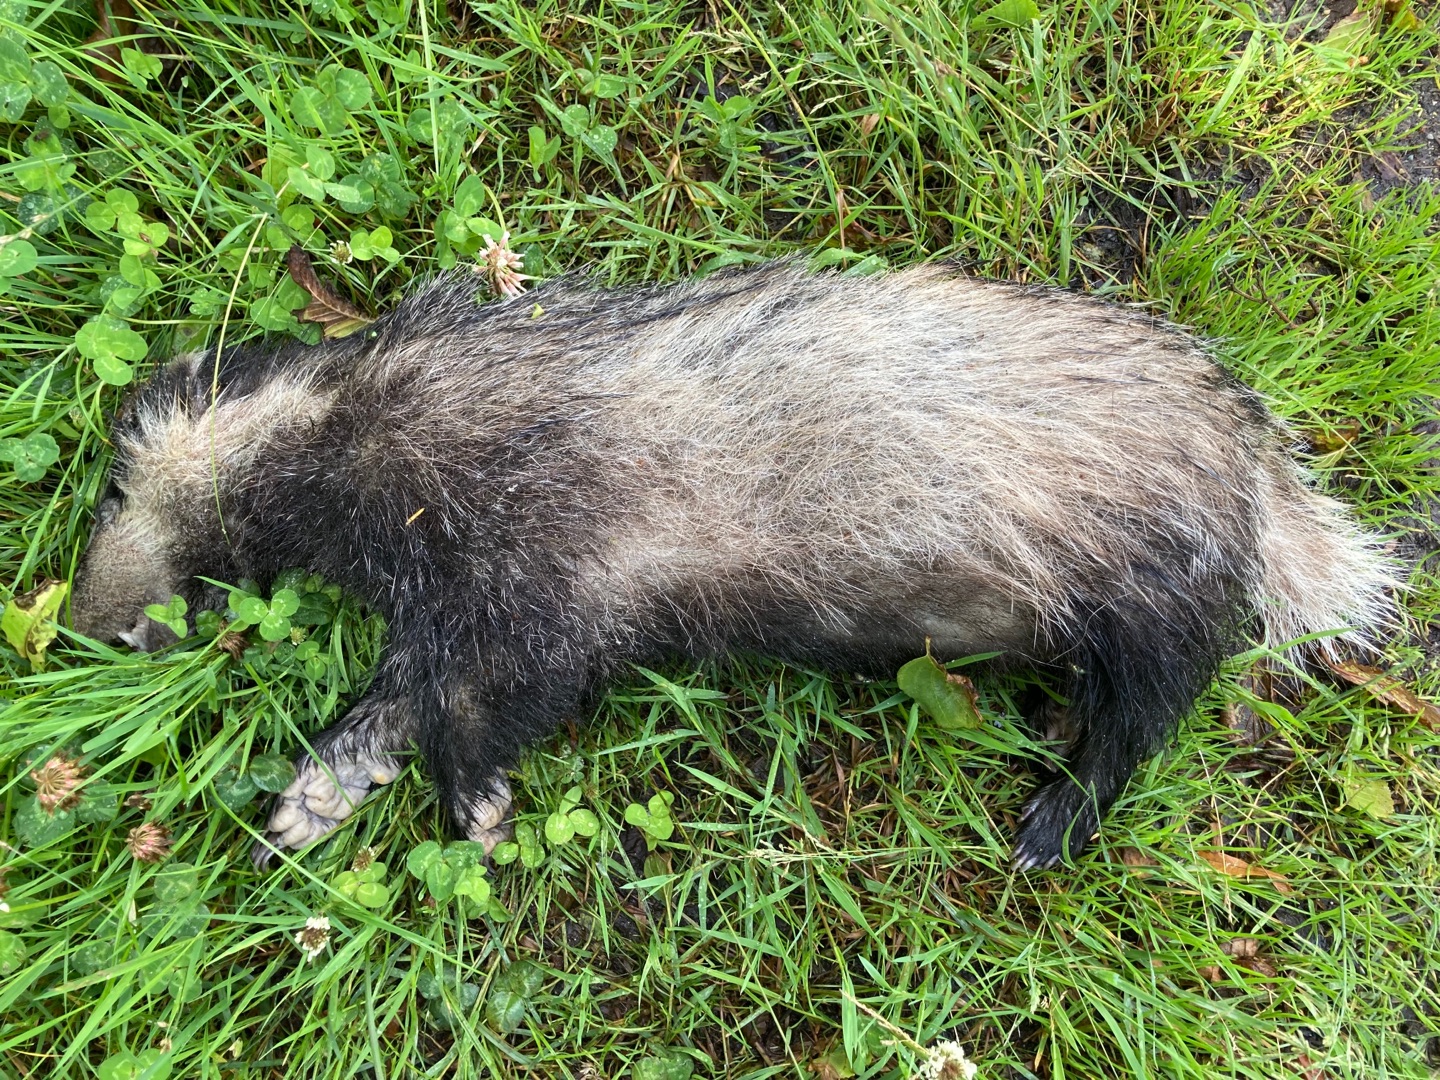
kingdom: Animalia
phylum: Chordata
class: Mammalia
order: Carnivora
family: Mustelidae
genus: Meles
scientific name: Meles meles
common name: Grævling
